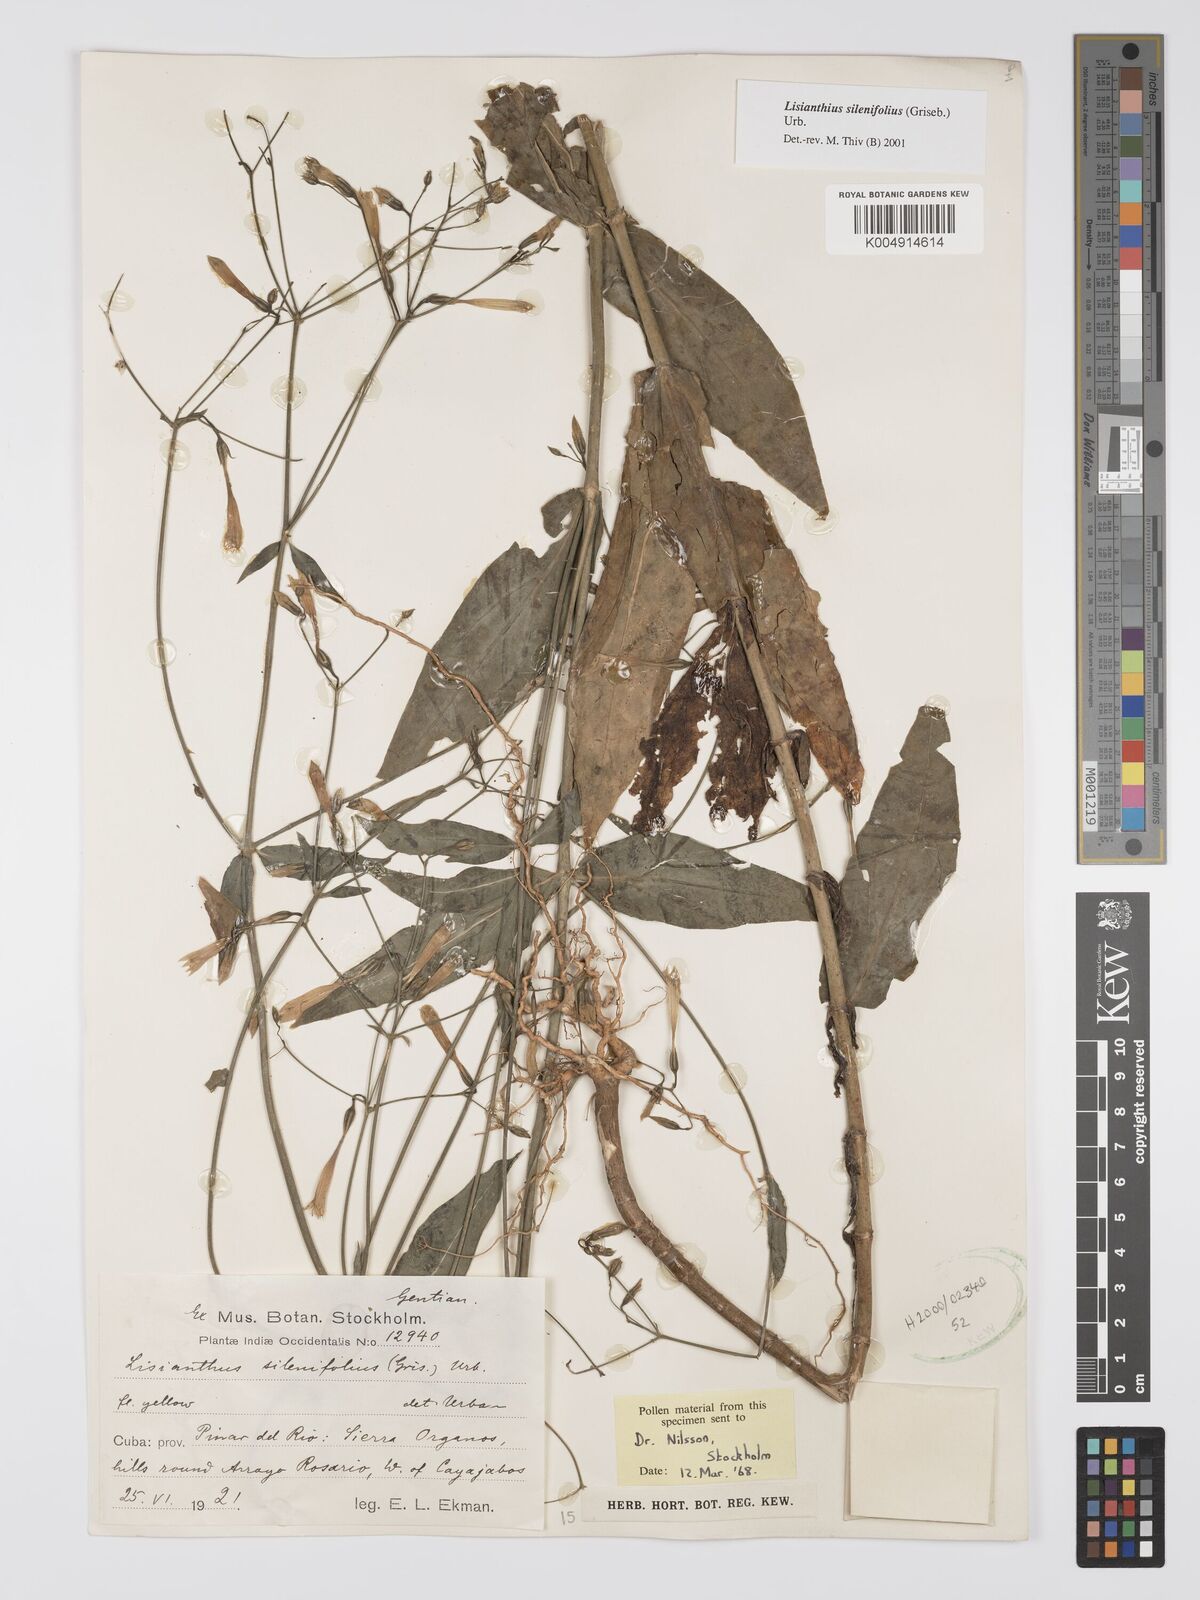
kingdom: Plantae
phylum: Tracheophyta
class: Magnoliopsida
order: Gentianales
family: Gentianaceae
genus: Lisianthus
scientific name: Lisianthus silenifolius
